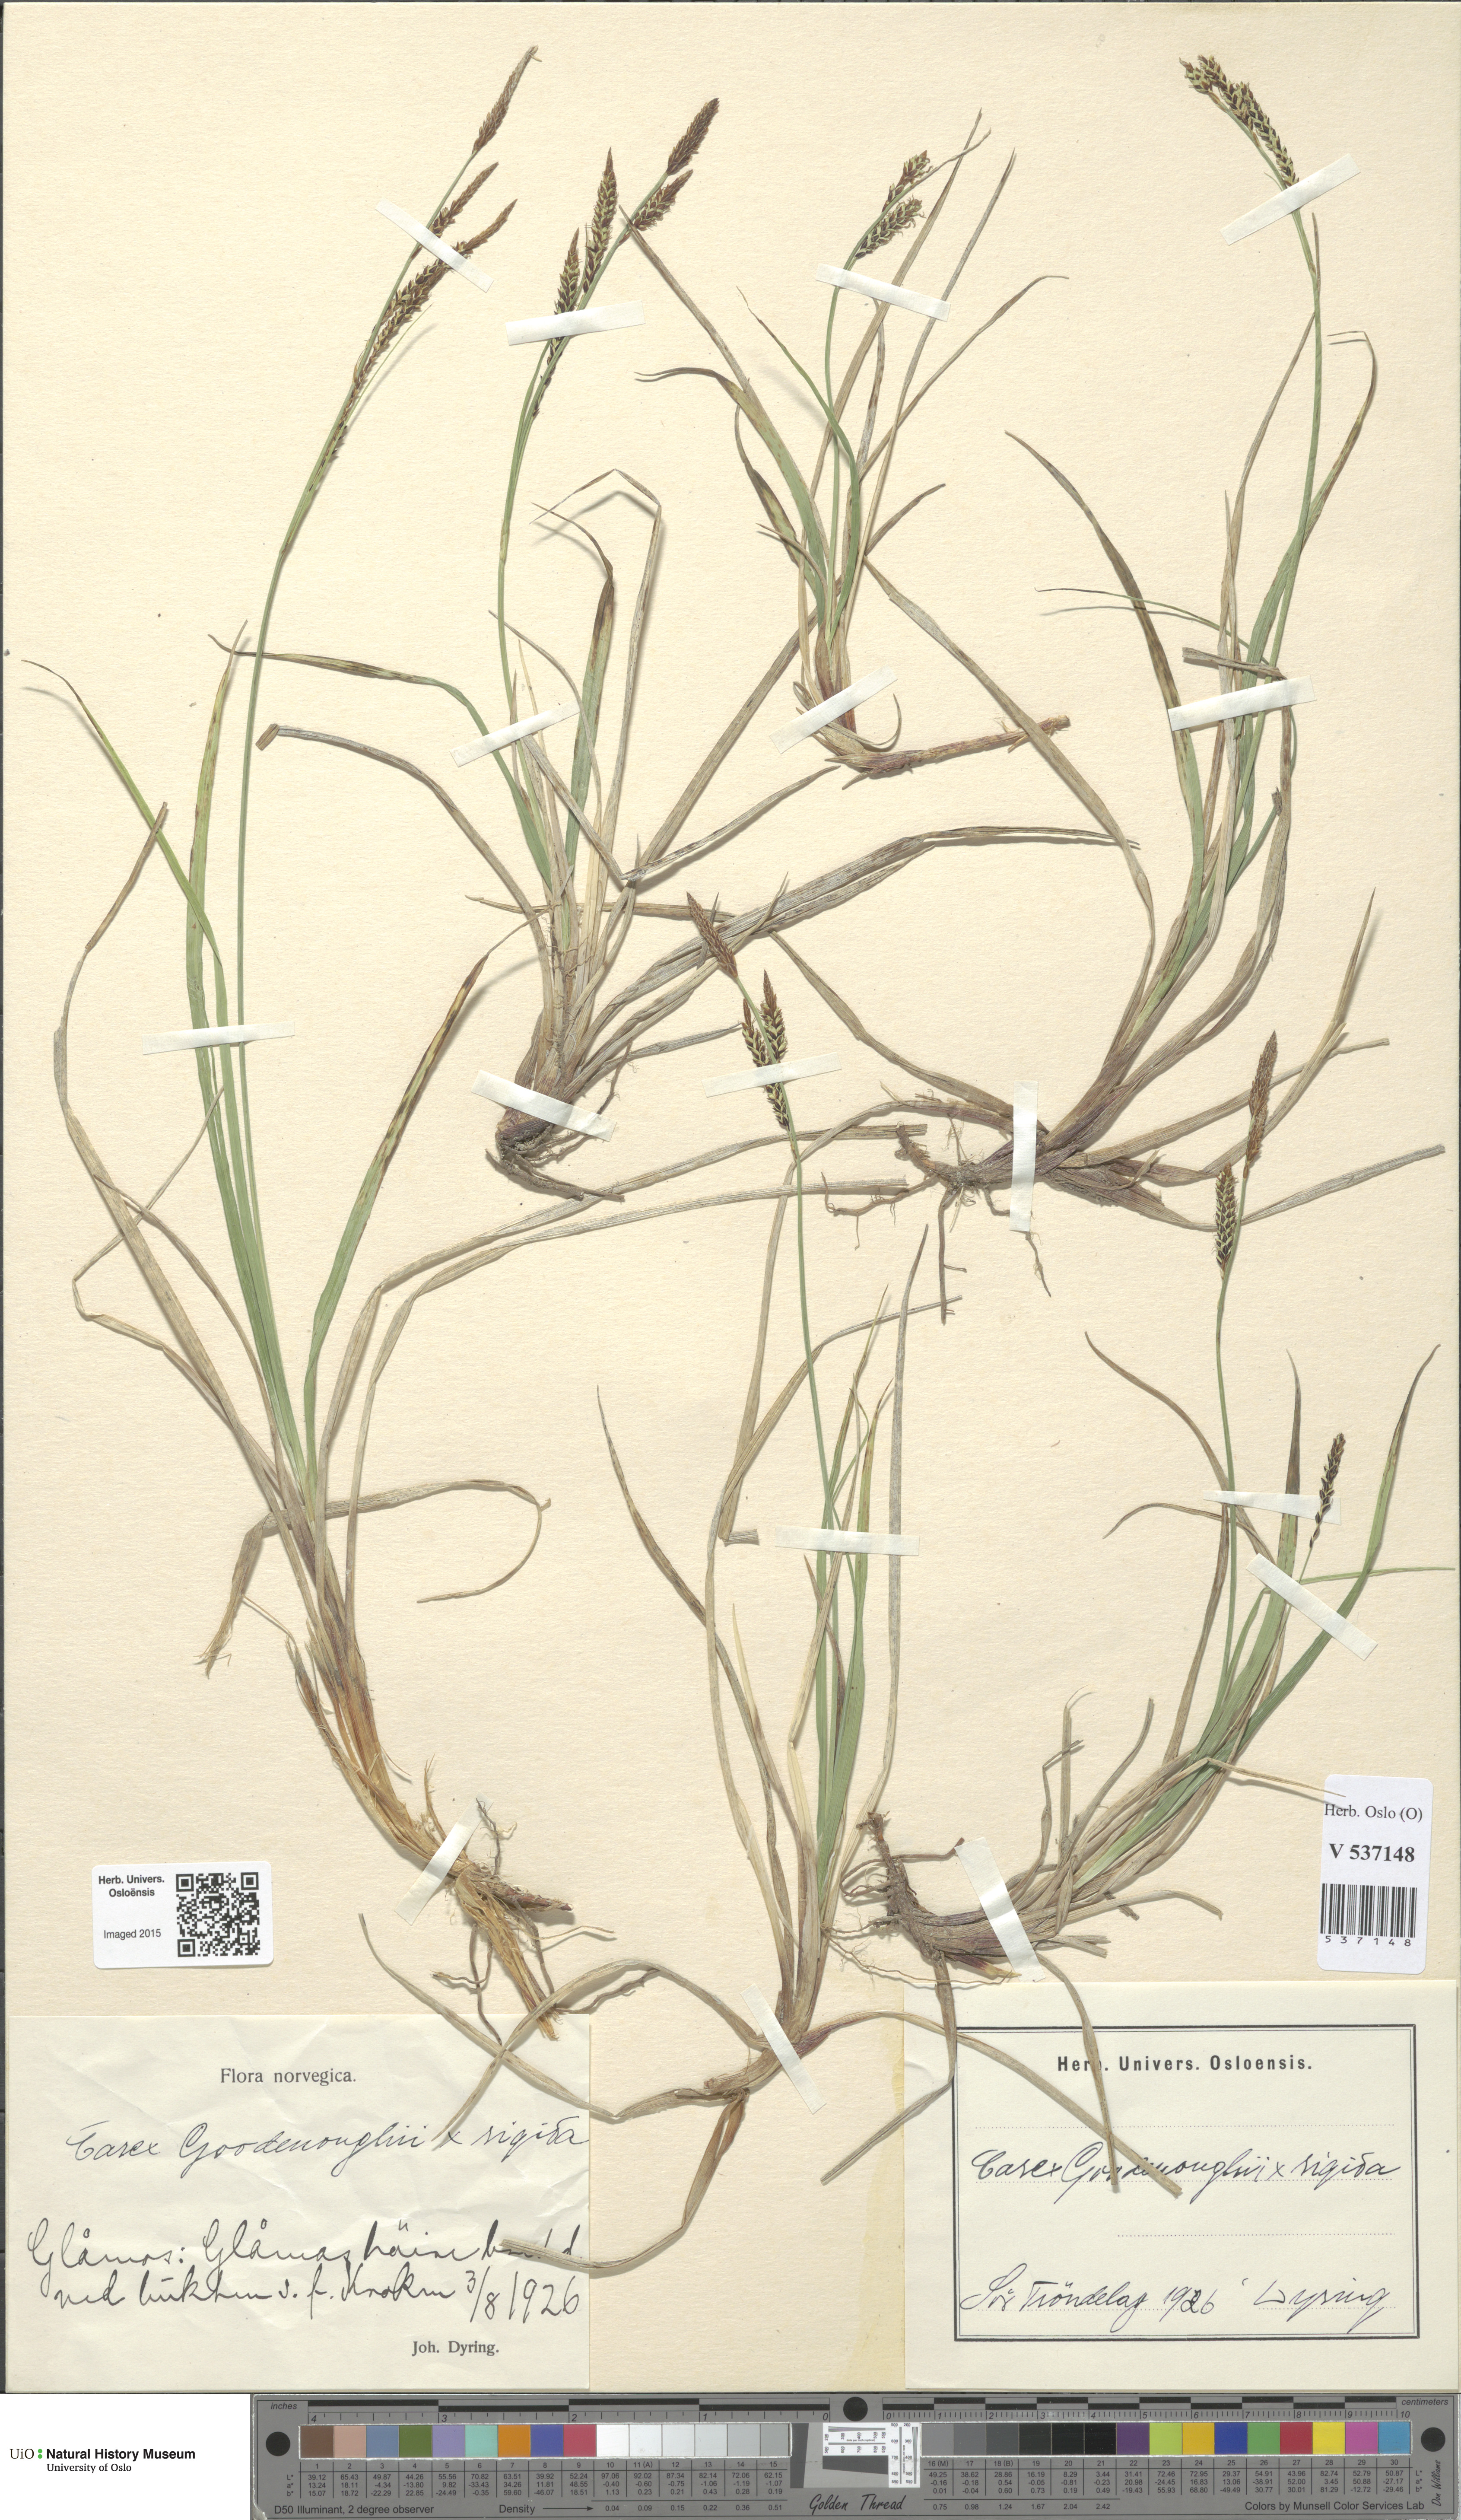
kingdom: Plantae
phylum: Tracheophyta
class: Liliopsida
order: Poales
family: Cyperaceae
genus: Carex
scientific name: Carex
